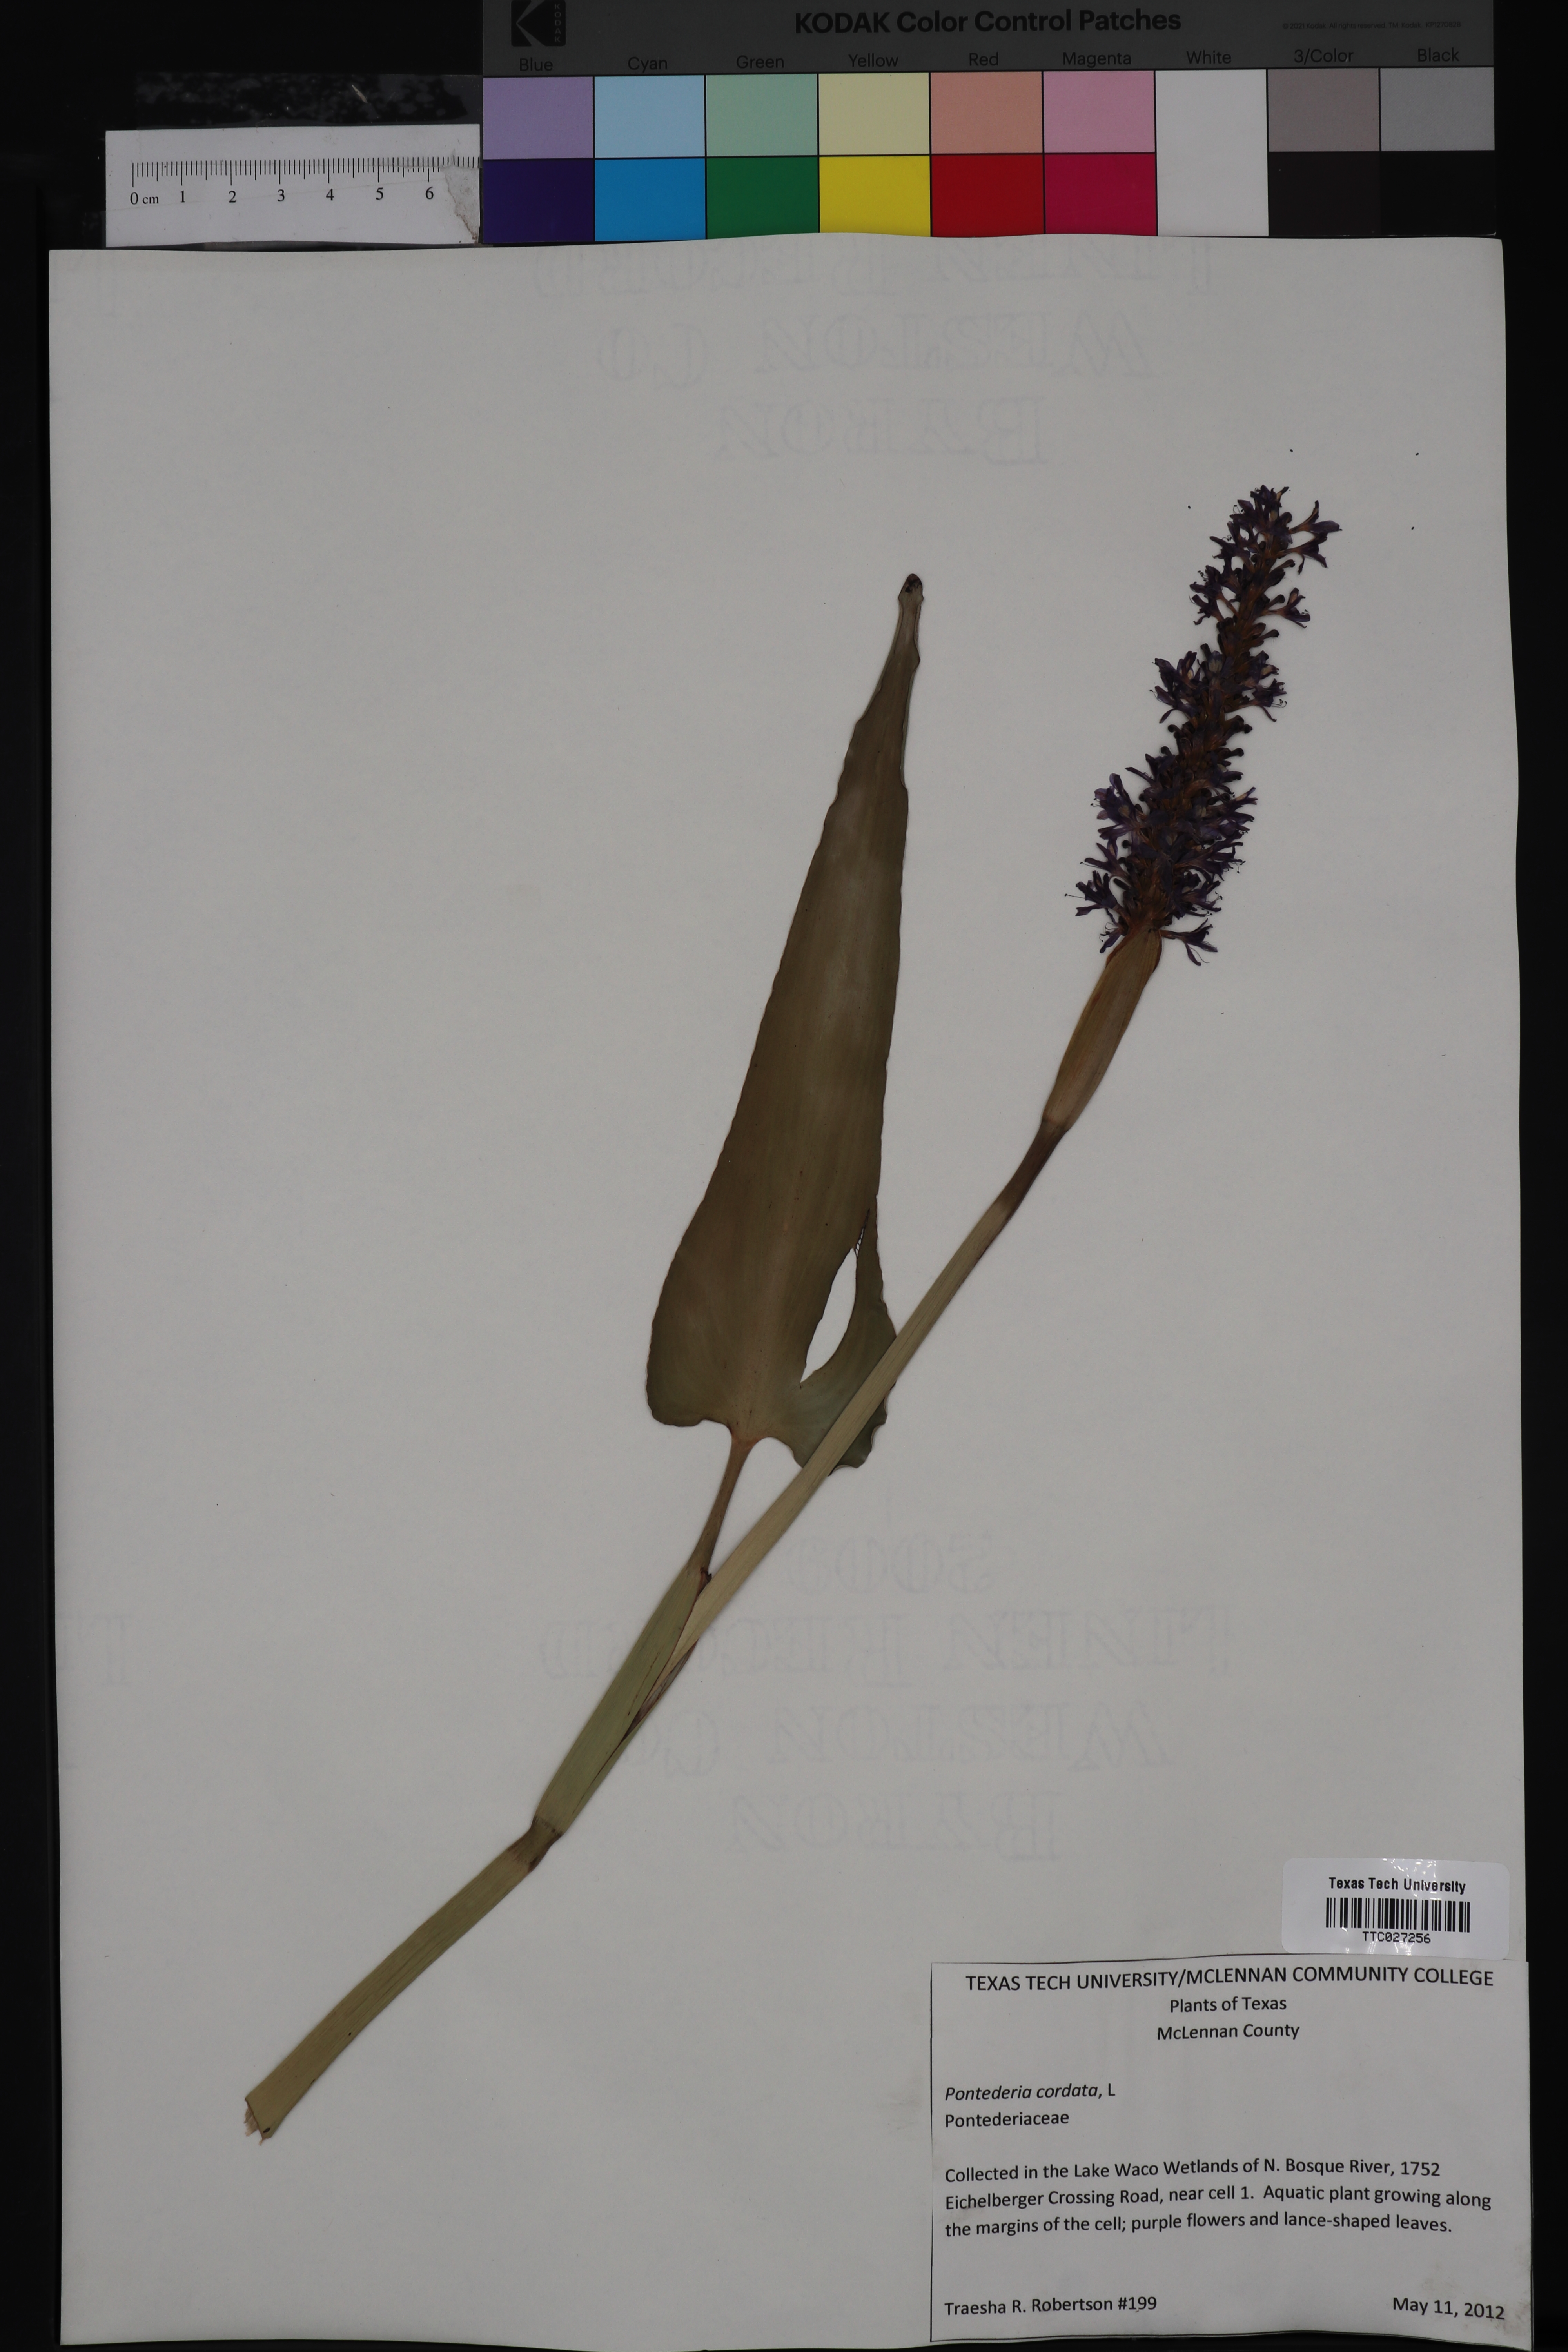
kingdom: Plantae
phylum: Tracheophyta
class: Liliopsida
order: Commelinales
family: Pontederiaceae
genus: Pontederia
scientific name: Pontederia cordata
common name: Pickerelweed
